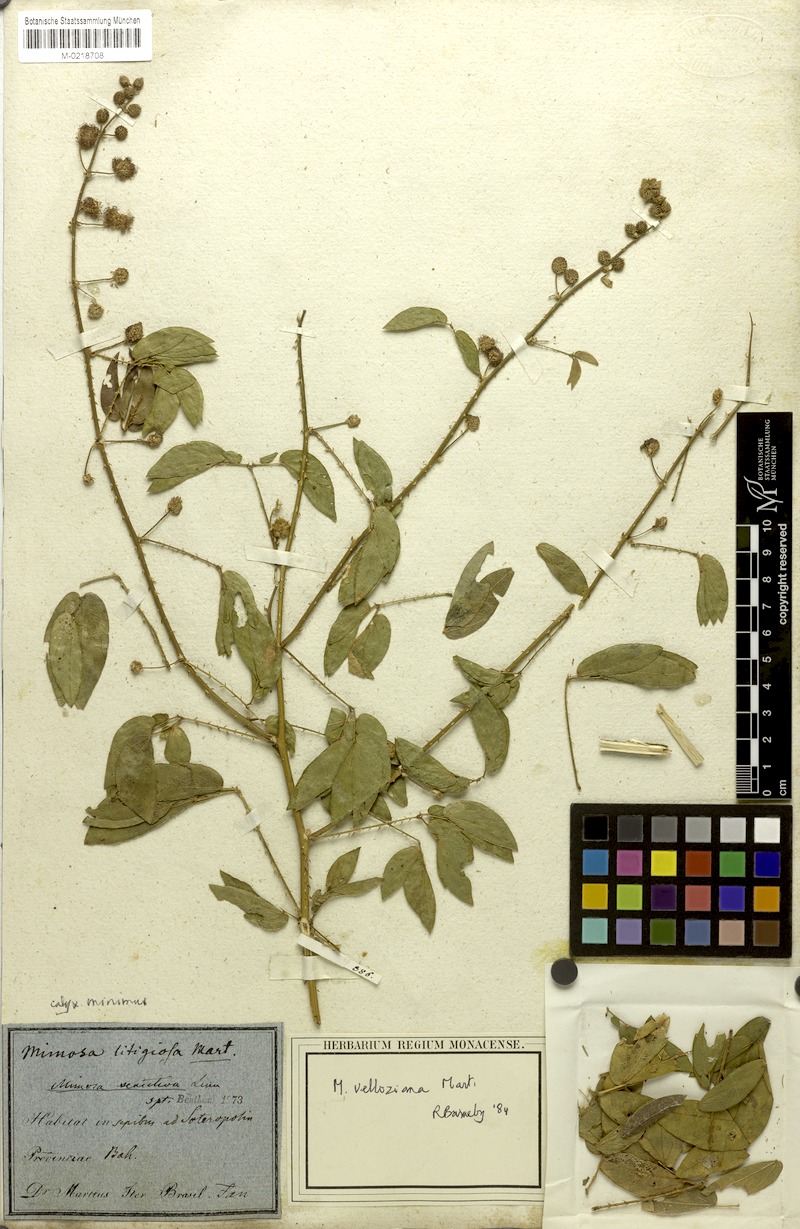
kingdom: Plantae
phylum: Tracheophyta
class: Magnoliopsida
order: Fabales
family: Fabaceae
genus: Mimosa
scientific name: Mimosa sensitiva
